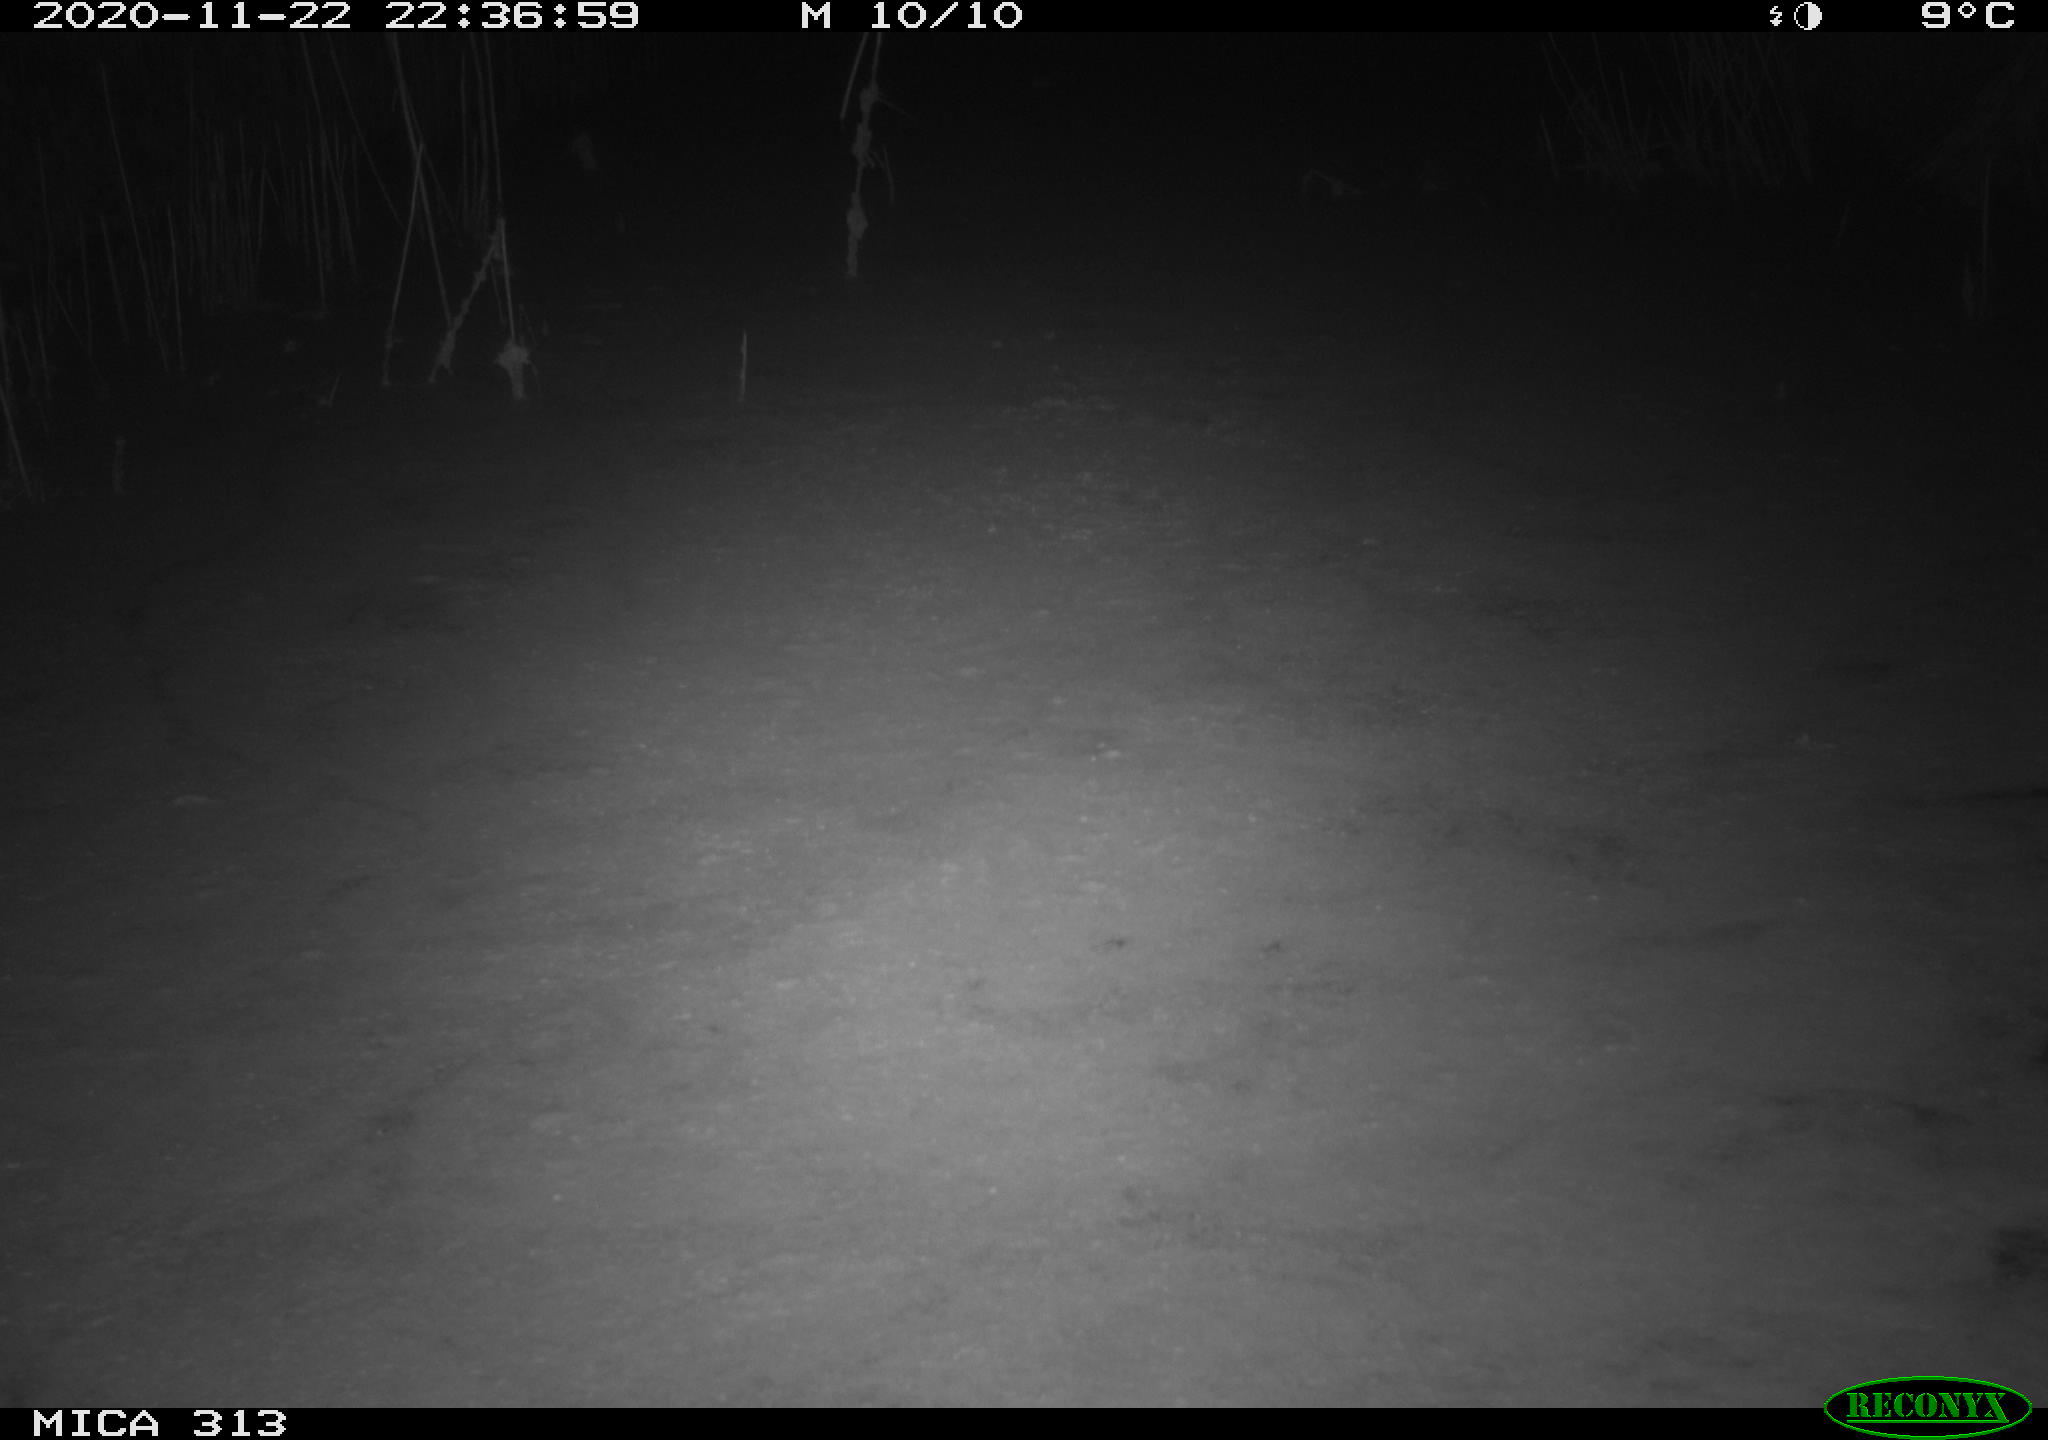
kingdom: Animalia
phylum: Chordata
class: Aves
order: Gruiformes
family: Rallidae
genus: Gallinula
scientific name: Gallinula chloropus
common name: Common moorhen
